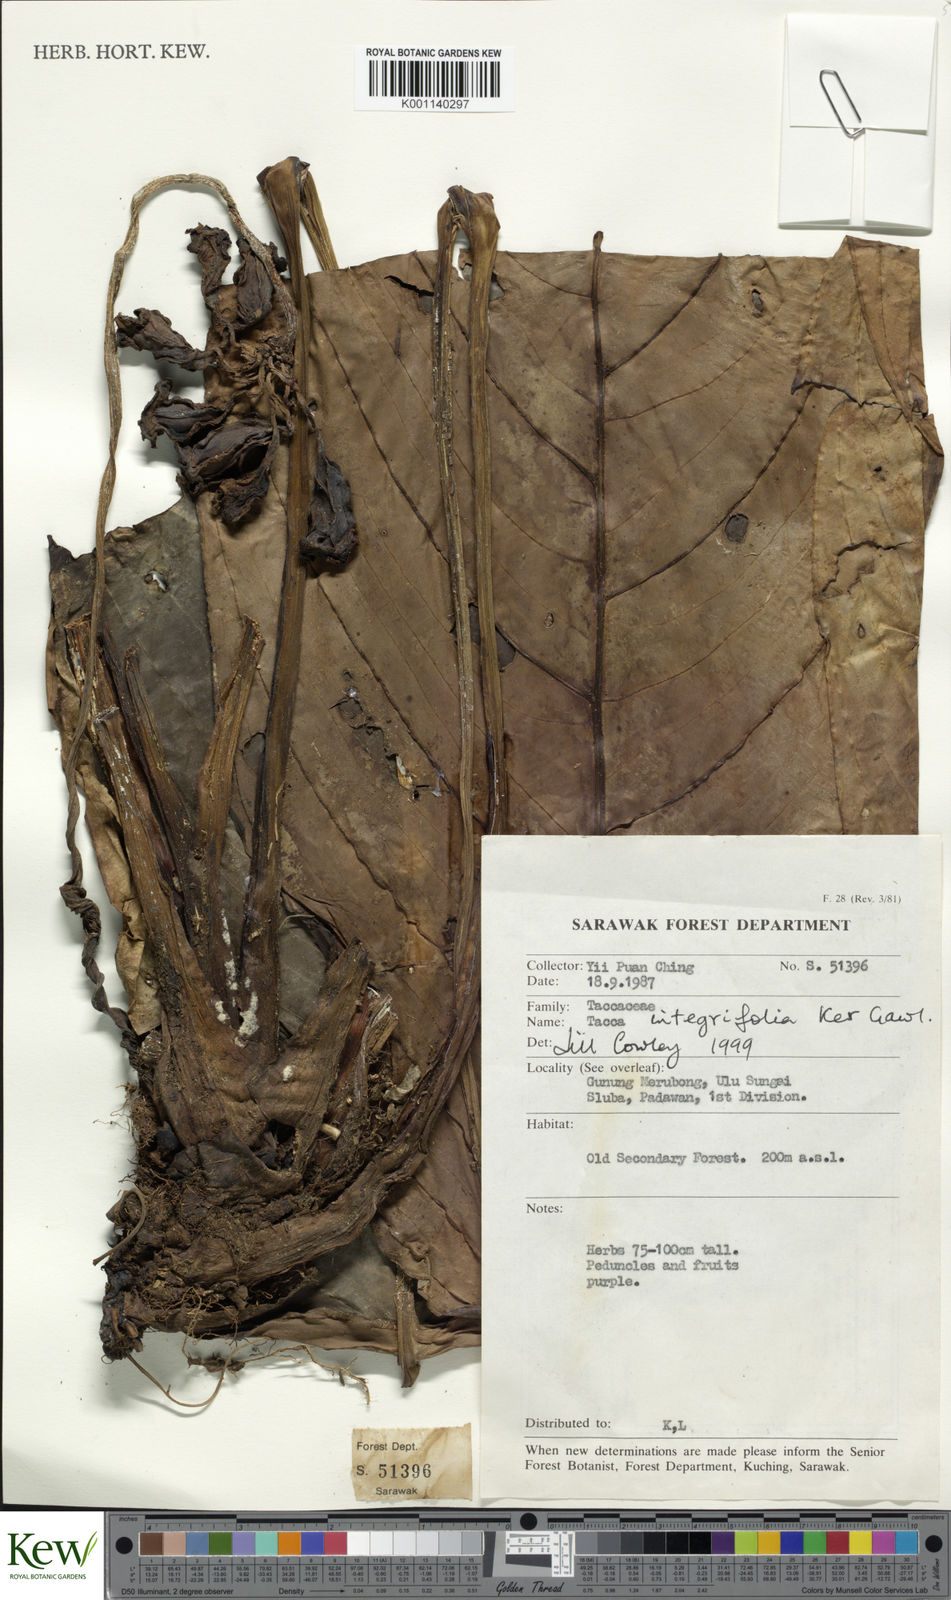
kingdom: Plantae
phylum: Tracheophyta
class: Liliopsida
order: Dioscoreales
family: Dioscoreaceae
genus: Tacca
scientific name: Tacca integrifolia
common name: Batplant
